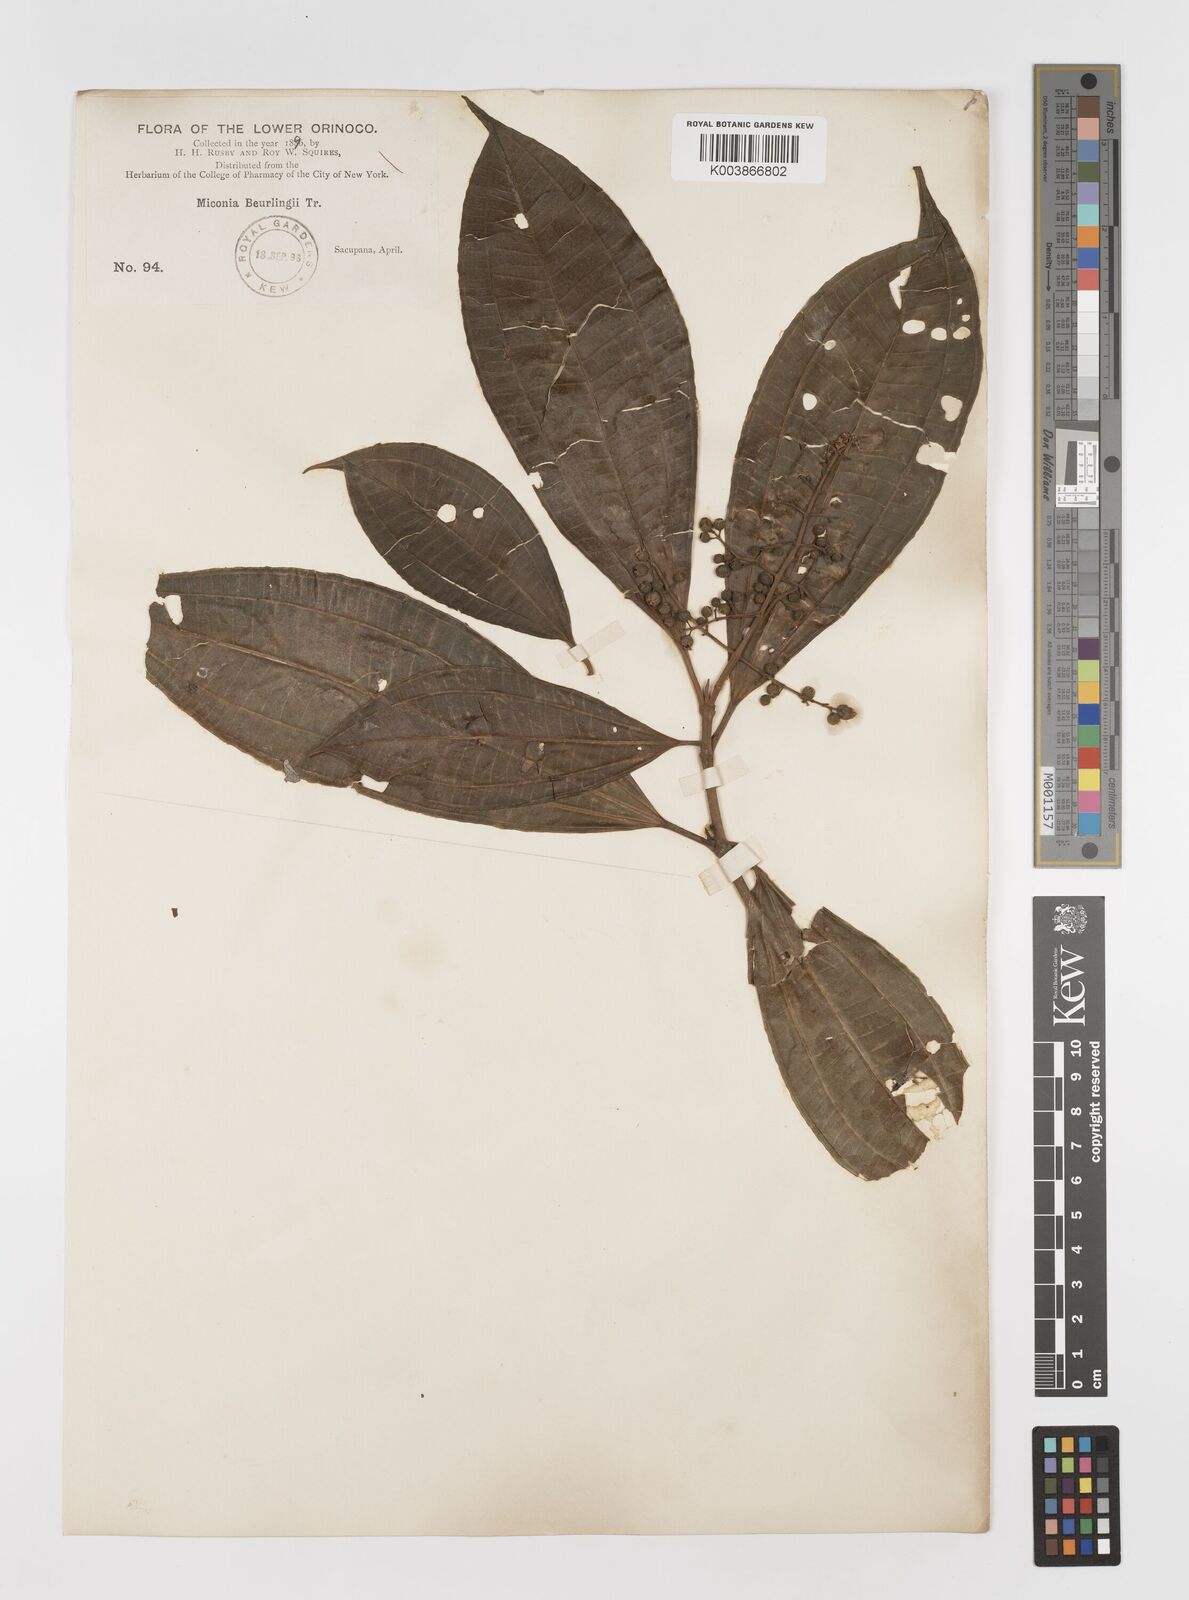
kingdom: Plantae
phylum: Tracheophyta
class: Magnoliopsida
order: Myrtales
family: Melastomataceae
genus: Miconia
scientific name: Miconia
